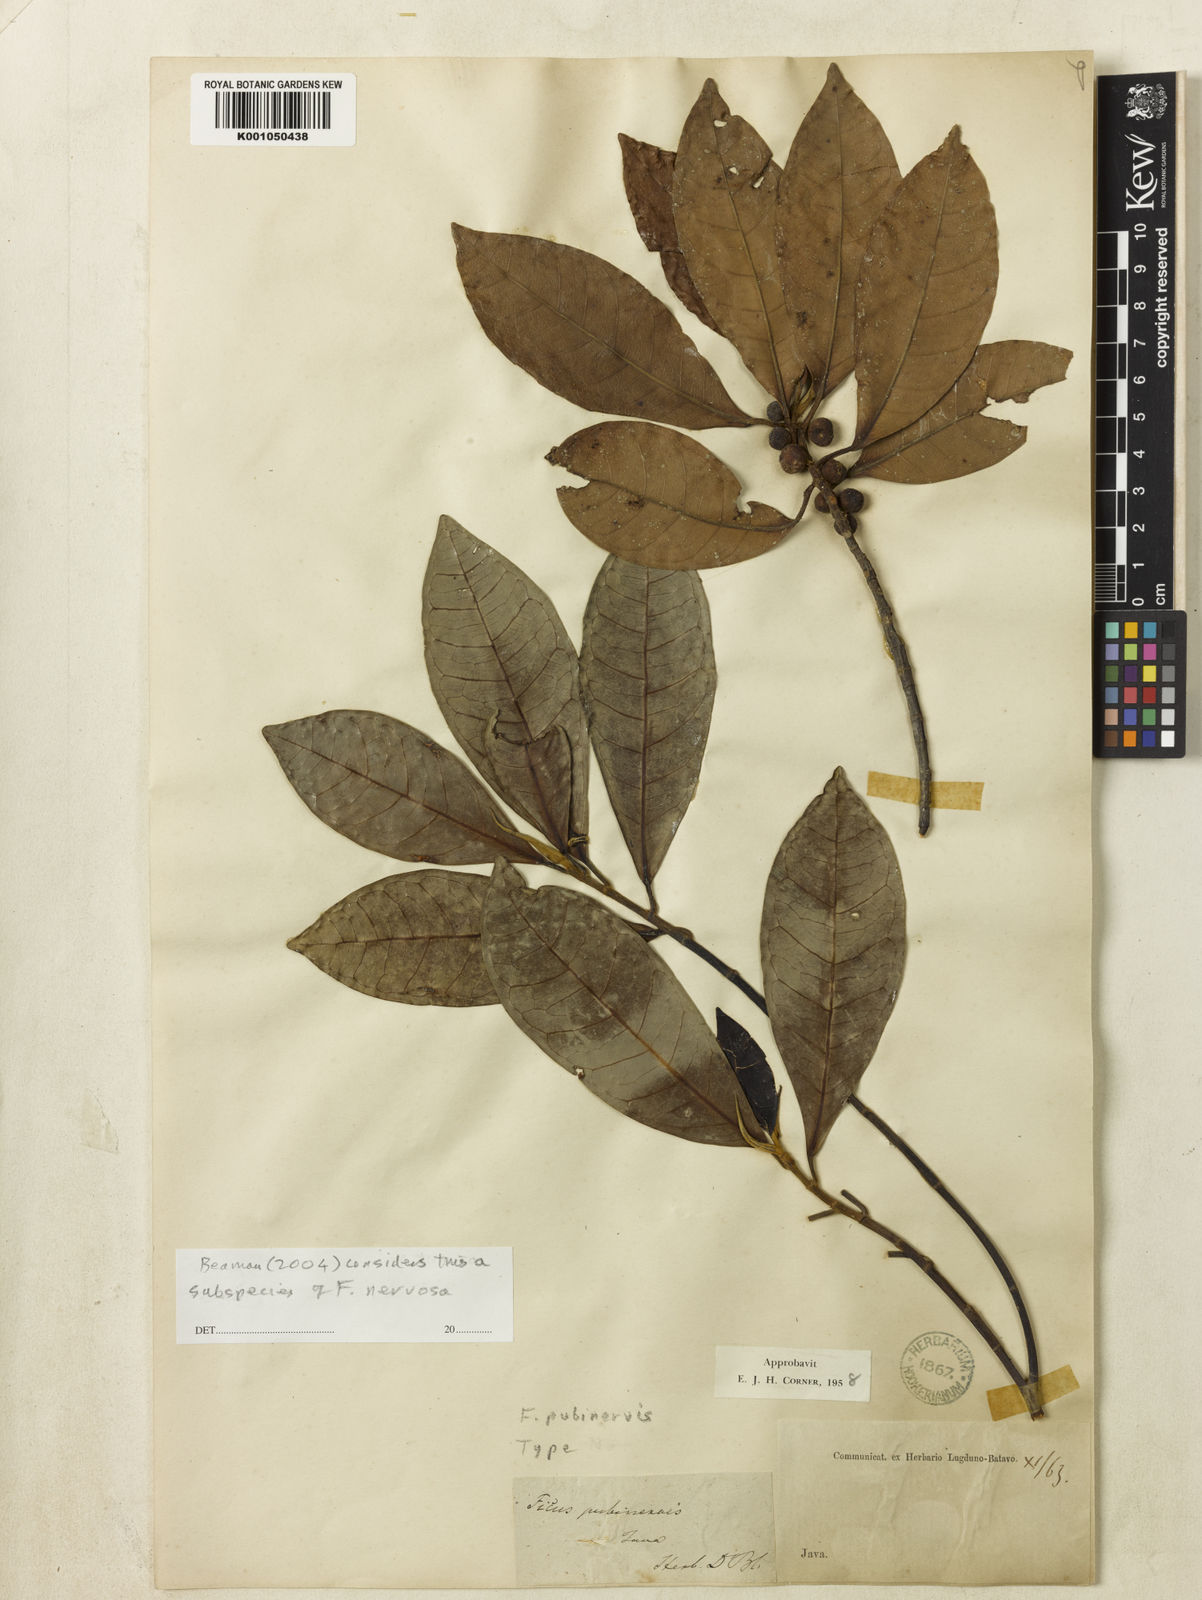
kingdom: Plantae
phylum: Tracheophyta
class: Magnoliopsida
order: Rosales
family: Moraceae
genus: Ficus
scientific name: Ficus nervosa
